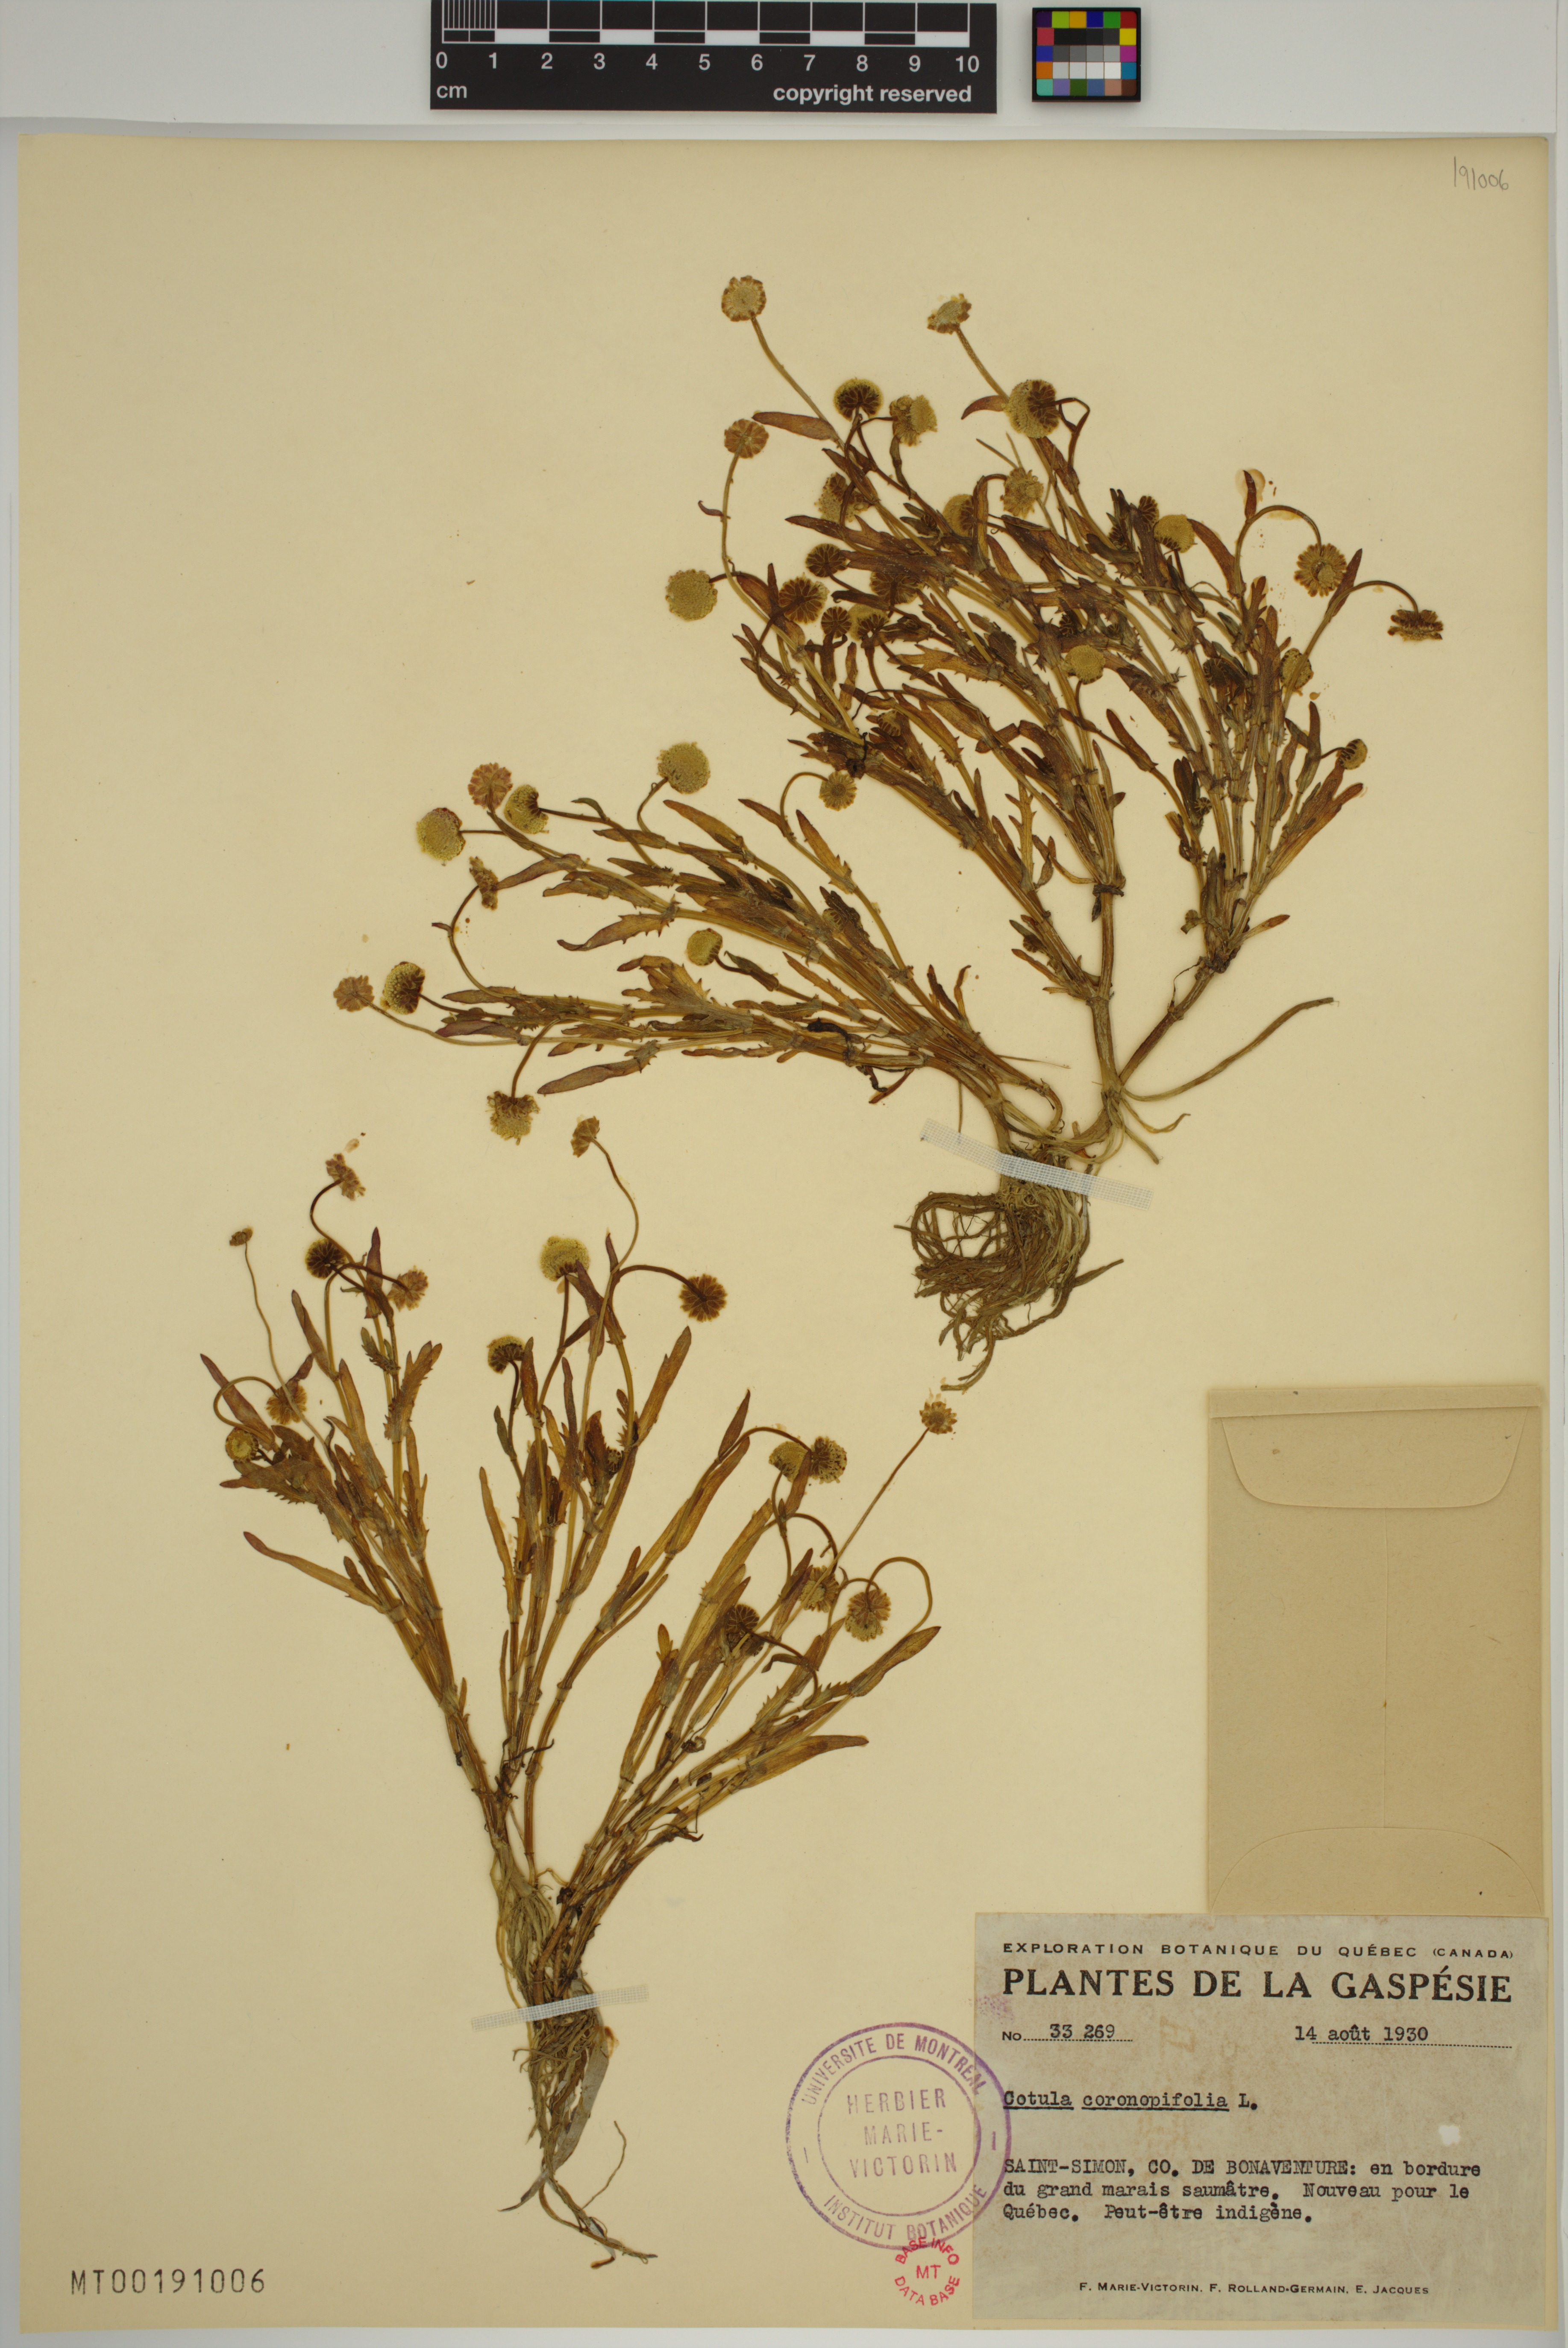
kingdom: Plantae
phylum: Tracheophyta
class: Magnoliopsida
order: Asterales
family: Asteraceae
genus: Cotula
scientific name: Cotula coronopifolia
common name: Buttonweed
